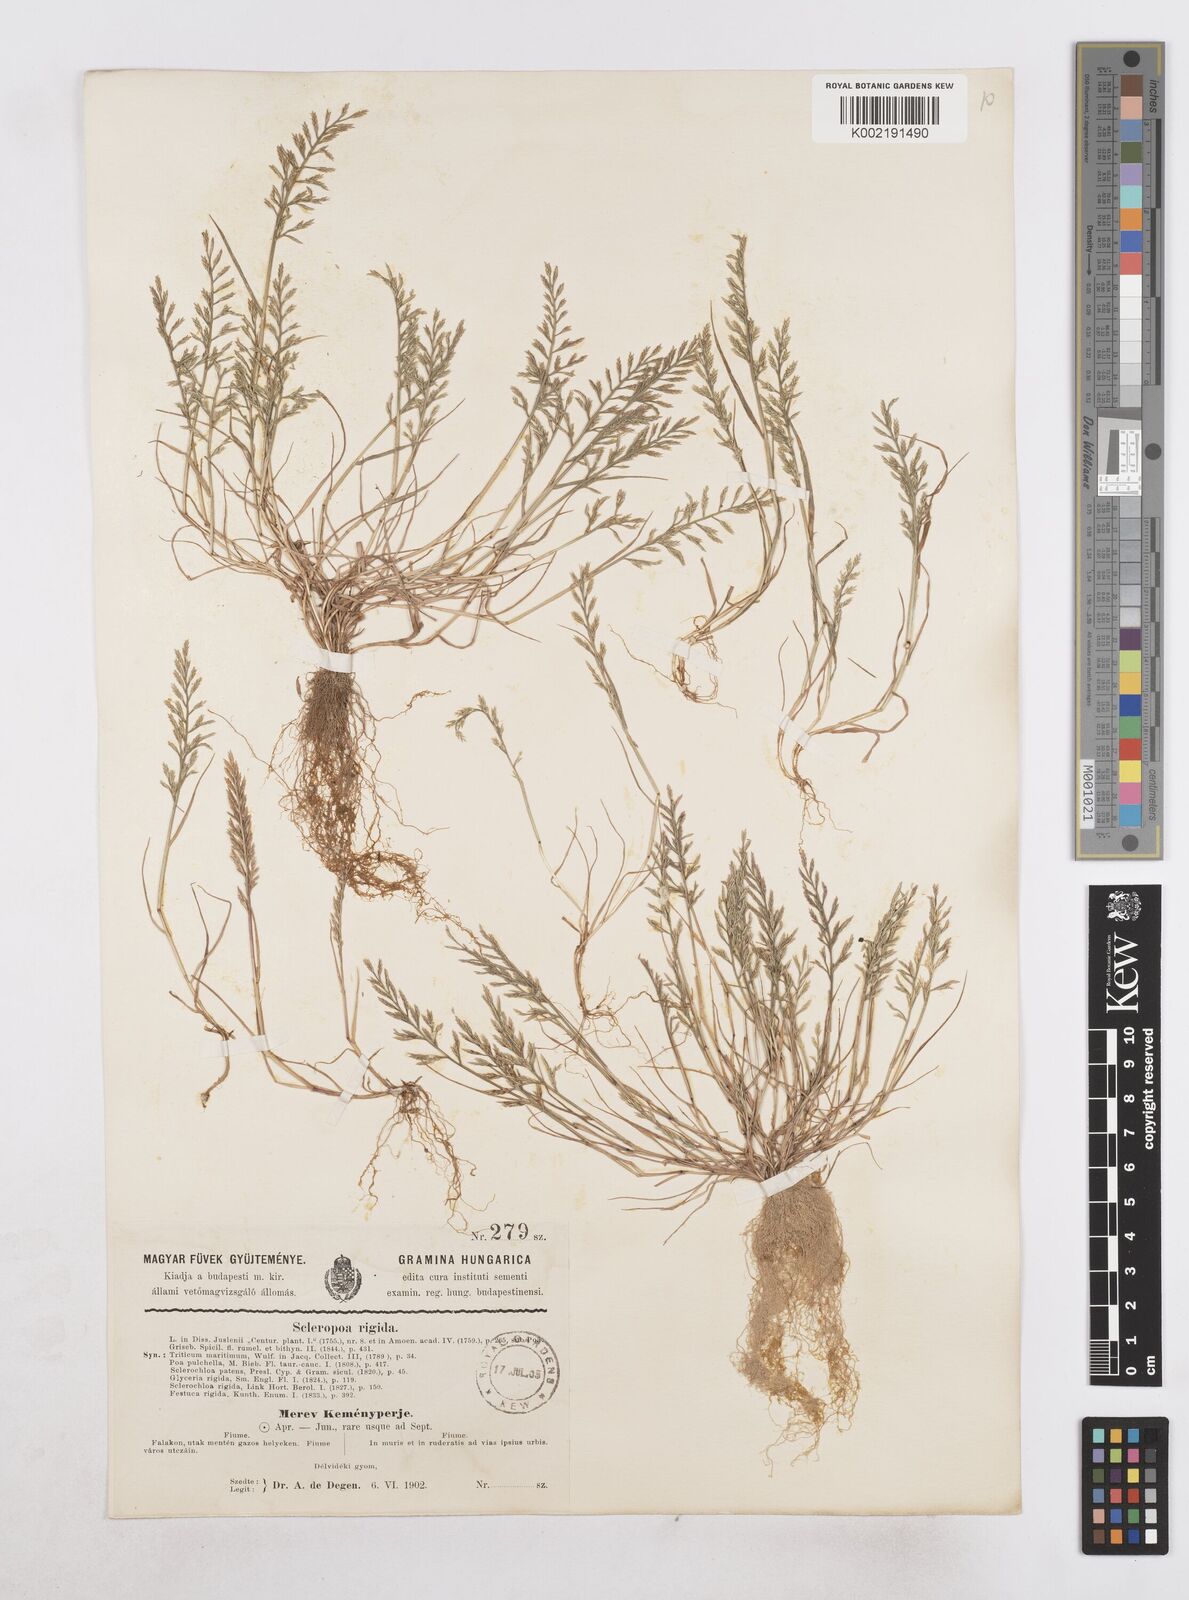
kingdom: Plantae
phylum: Tracheophyta
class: Liliopsida
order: Poales
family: Poaceae
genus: Catapodium
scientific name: Catapodium rigidum
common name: Fern-grass
